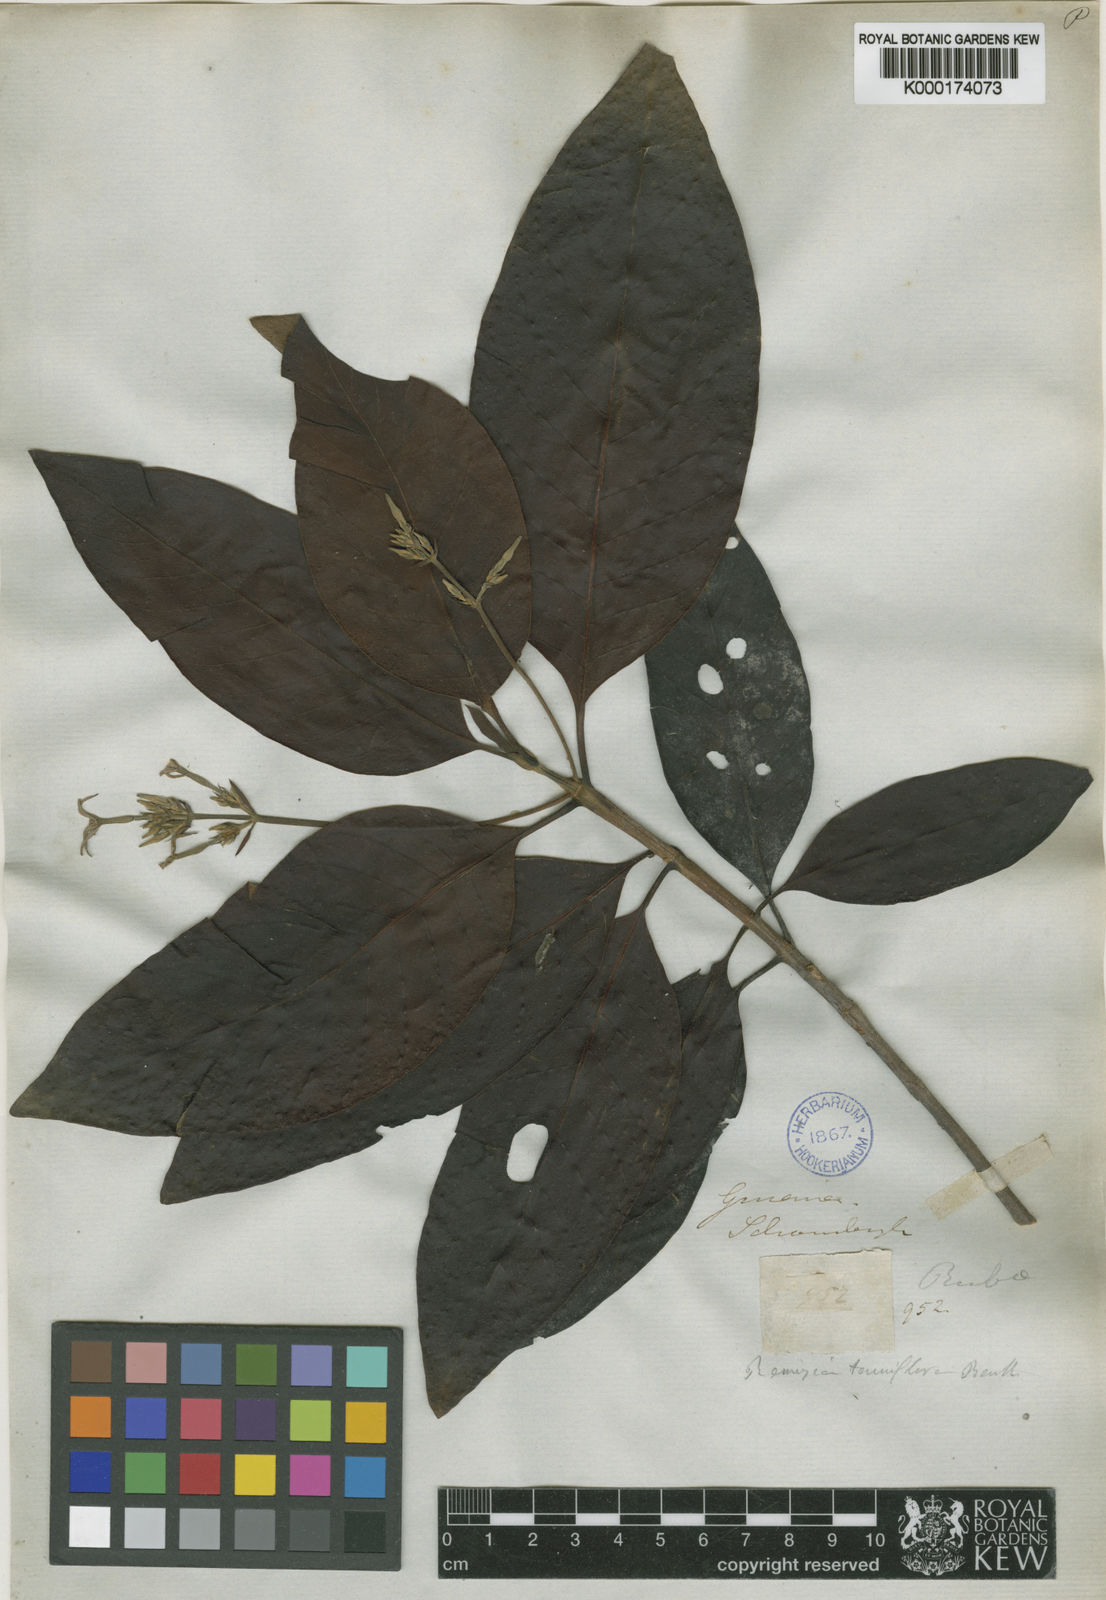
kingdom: Plantae
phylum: Tracheophyta
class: Magnoliopsida
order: Gentianales
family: Rubiaceae
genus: Remijia
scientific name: Remijia tenuiflora
